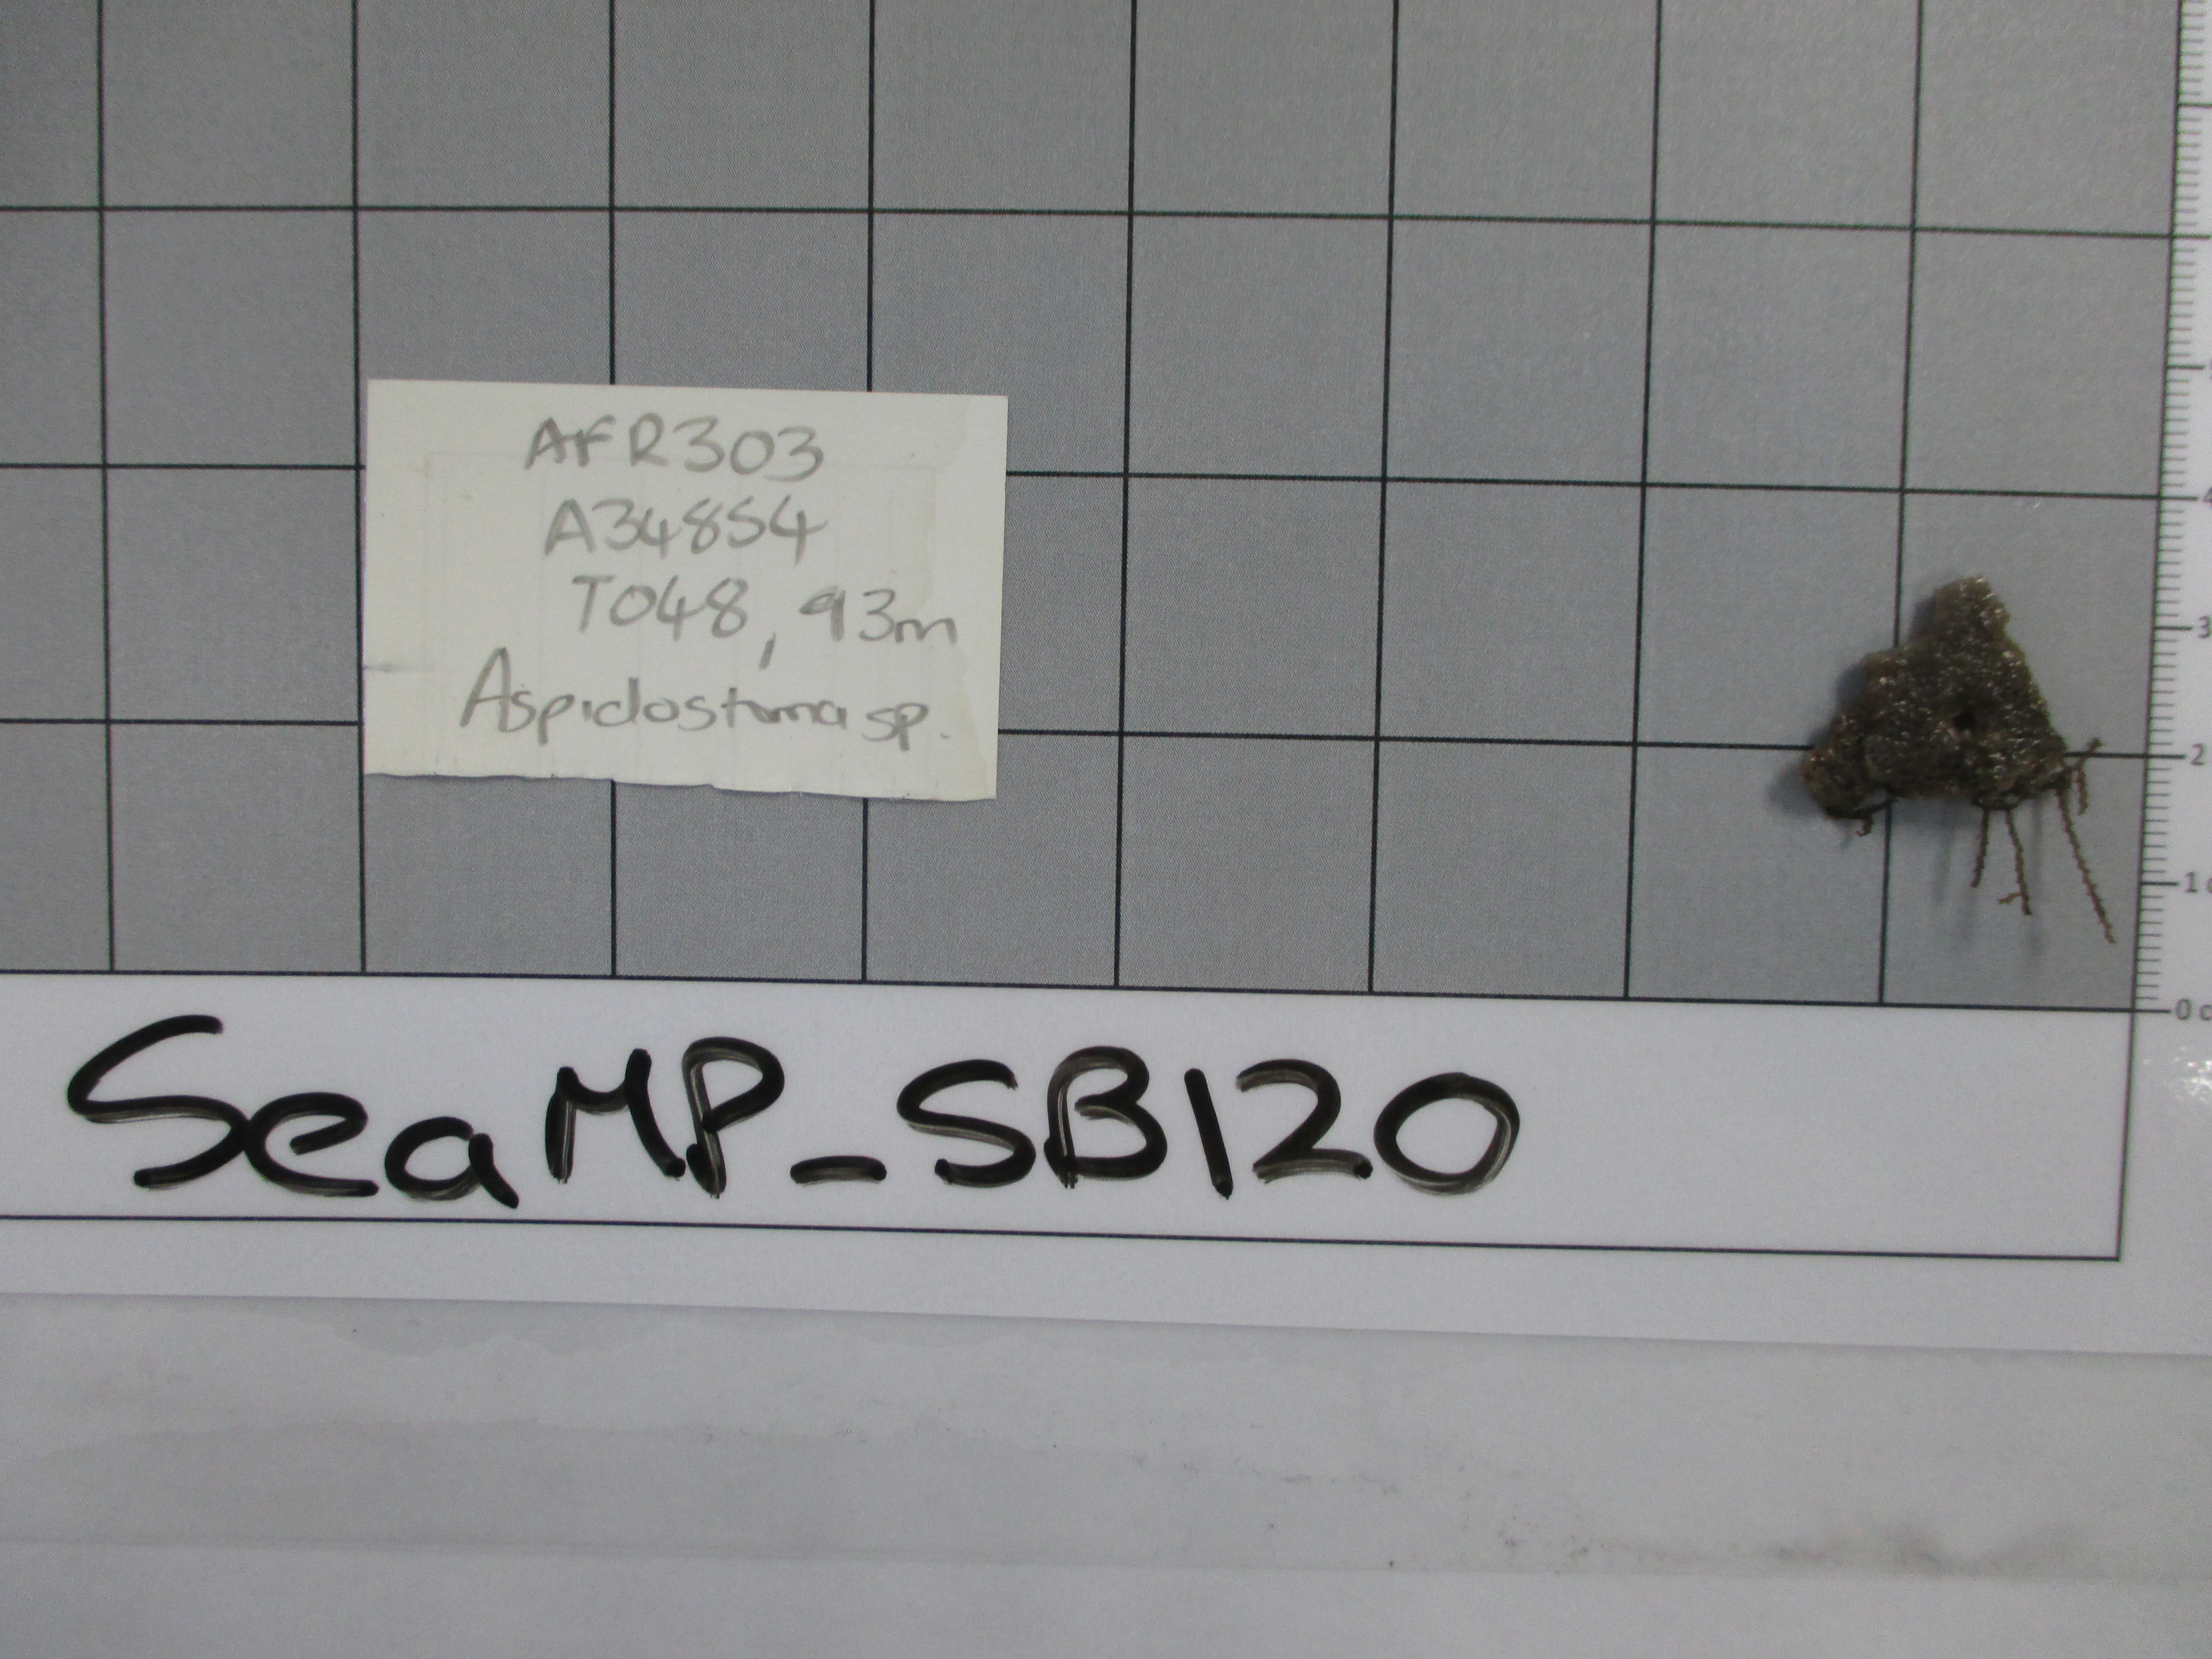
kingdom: Animalia
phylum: Bryozoa
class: Gymnolaemata
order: Cheilostomatida
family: Aspidostomatidae
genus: Aspidostoma
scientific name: Aspidostoma
